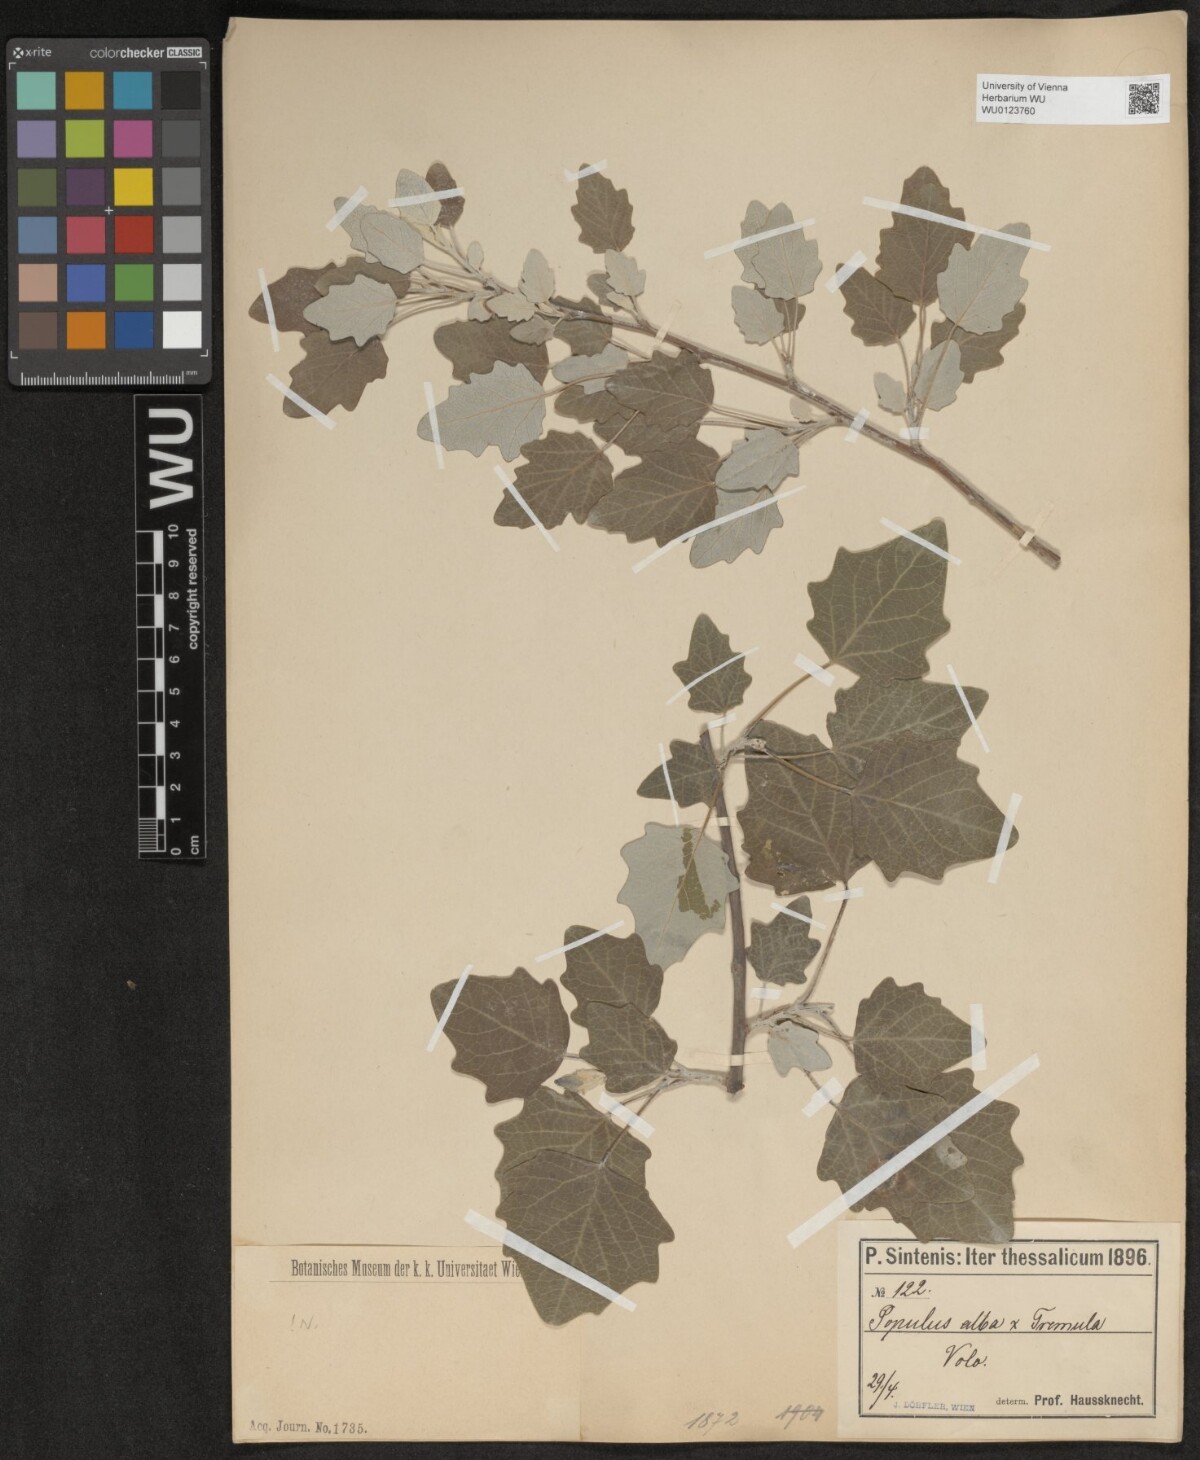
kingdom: Plantae
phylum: Tracheophyta
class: Magnoliopsida
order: Malpighiales
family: Salicaceae
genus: Populus
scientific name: Populus alba
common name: White poplar
